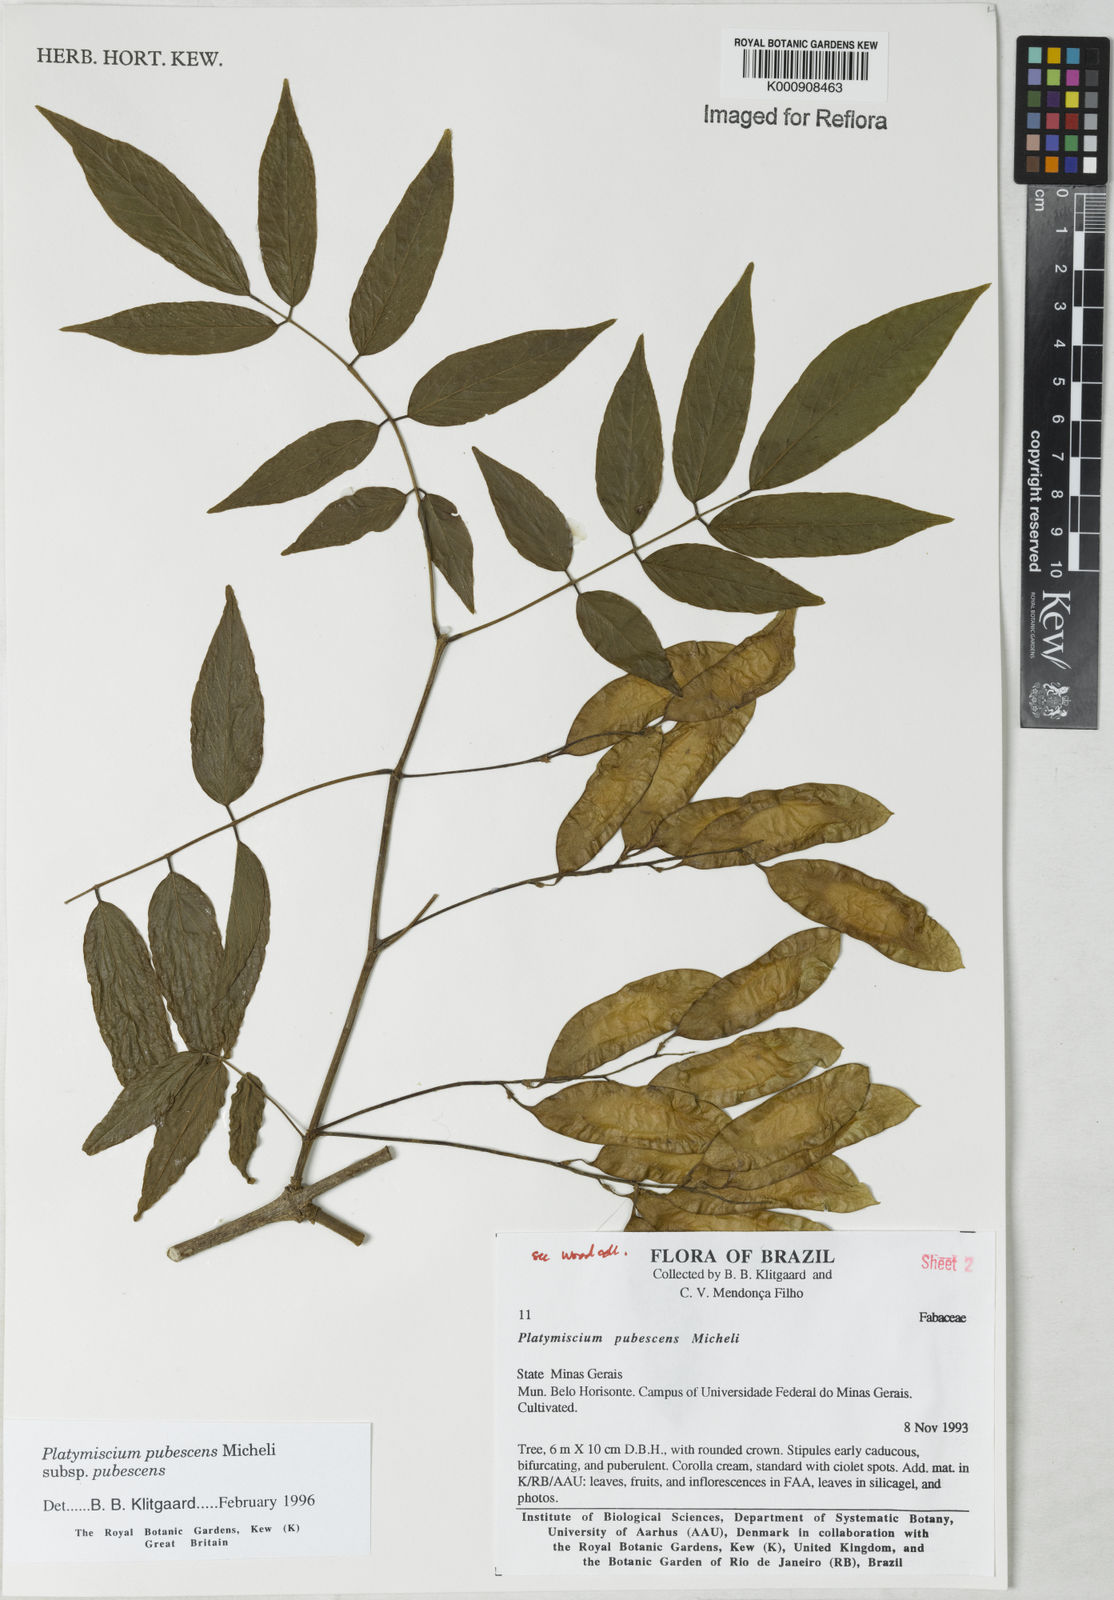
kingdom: Plantae
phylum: Tracheophyta
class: Magnoliopsida
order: Fabales
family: Fabaceae
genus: Platymiscium
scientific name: Platymiscium pubescens
